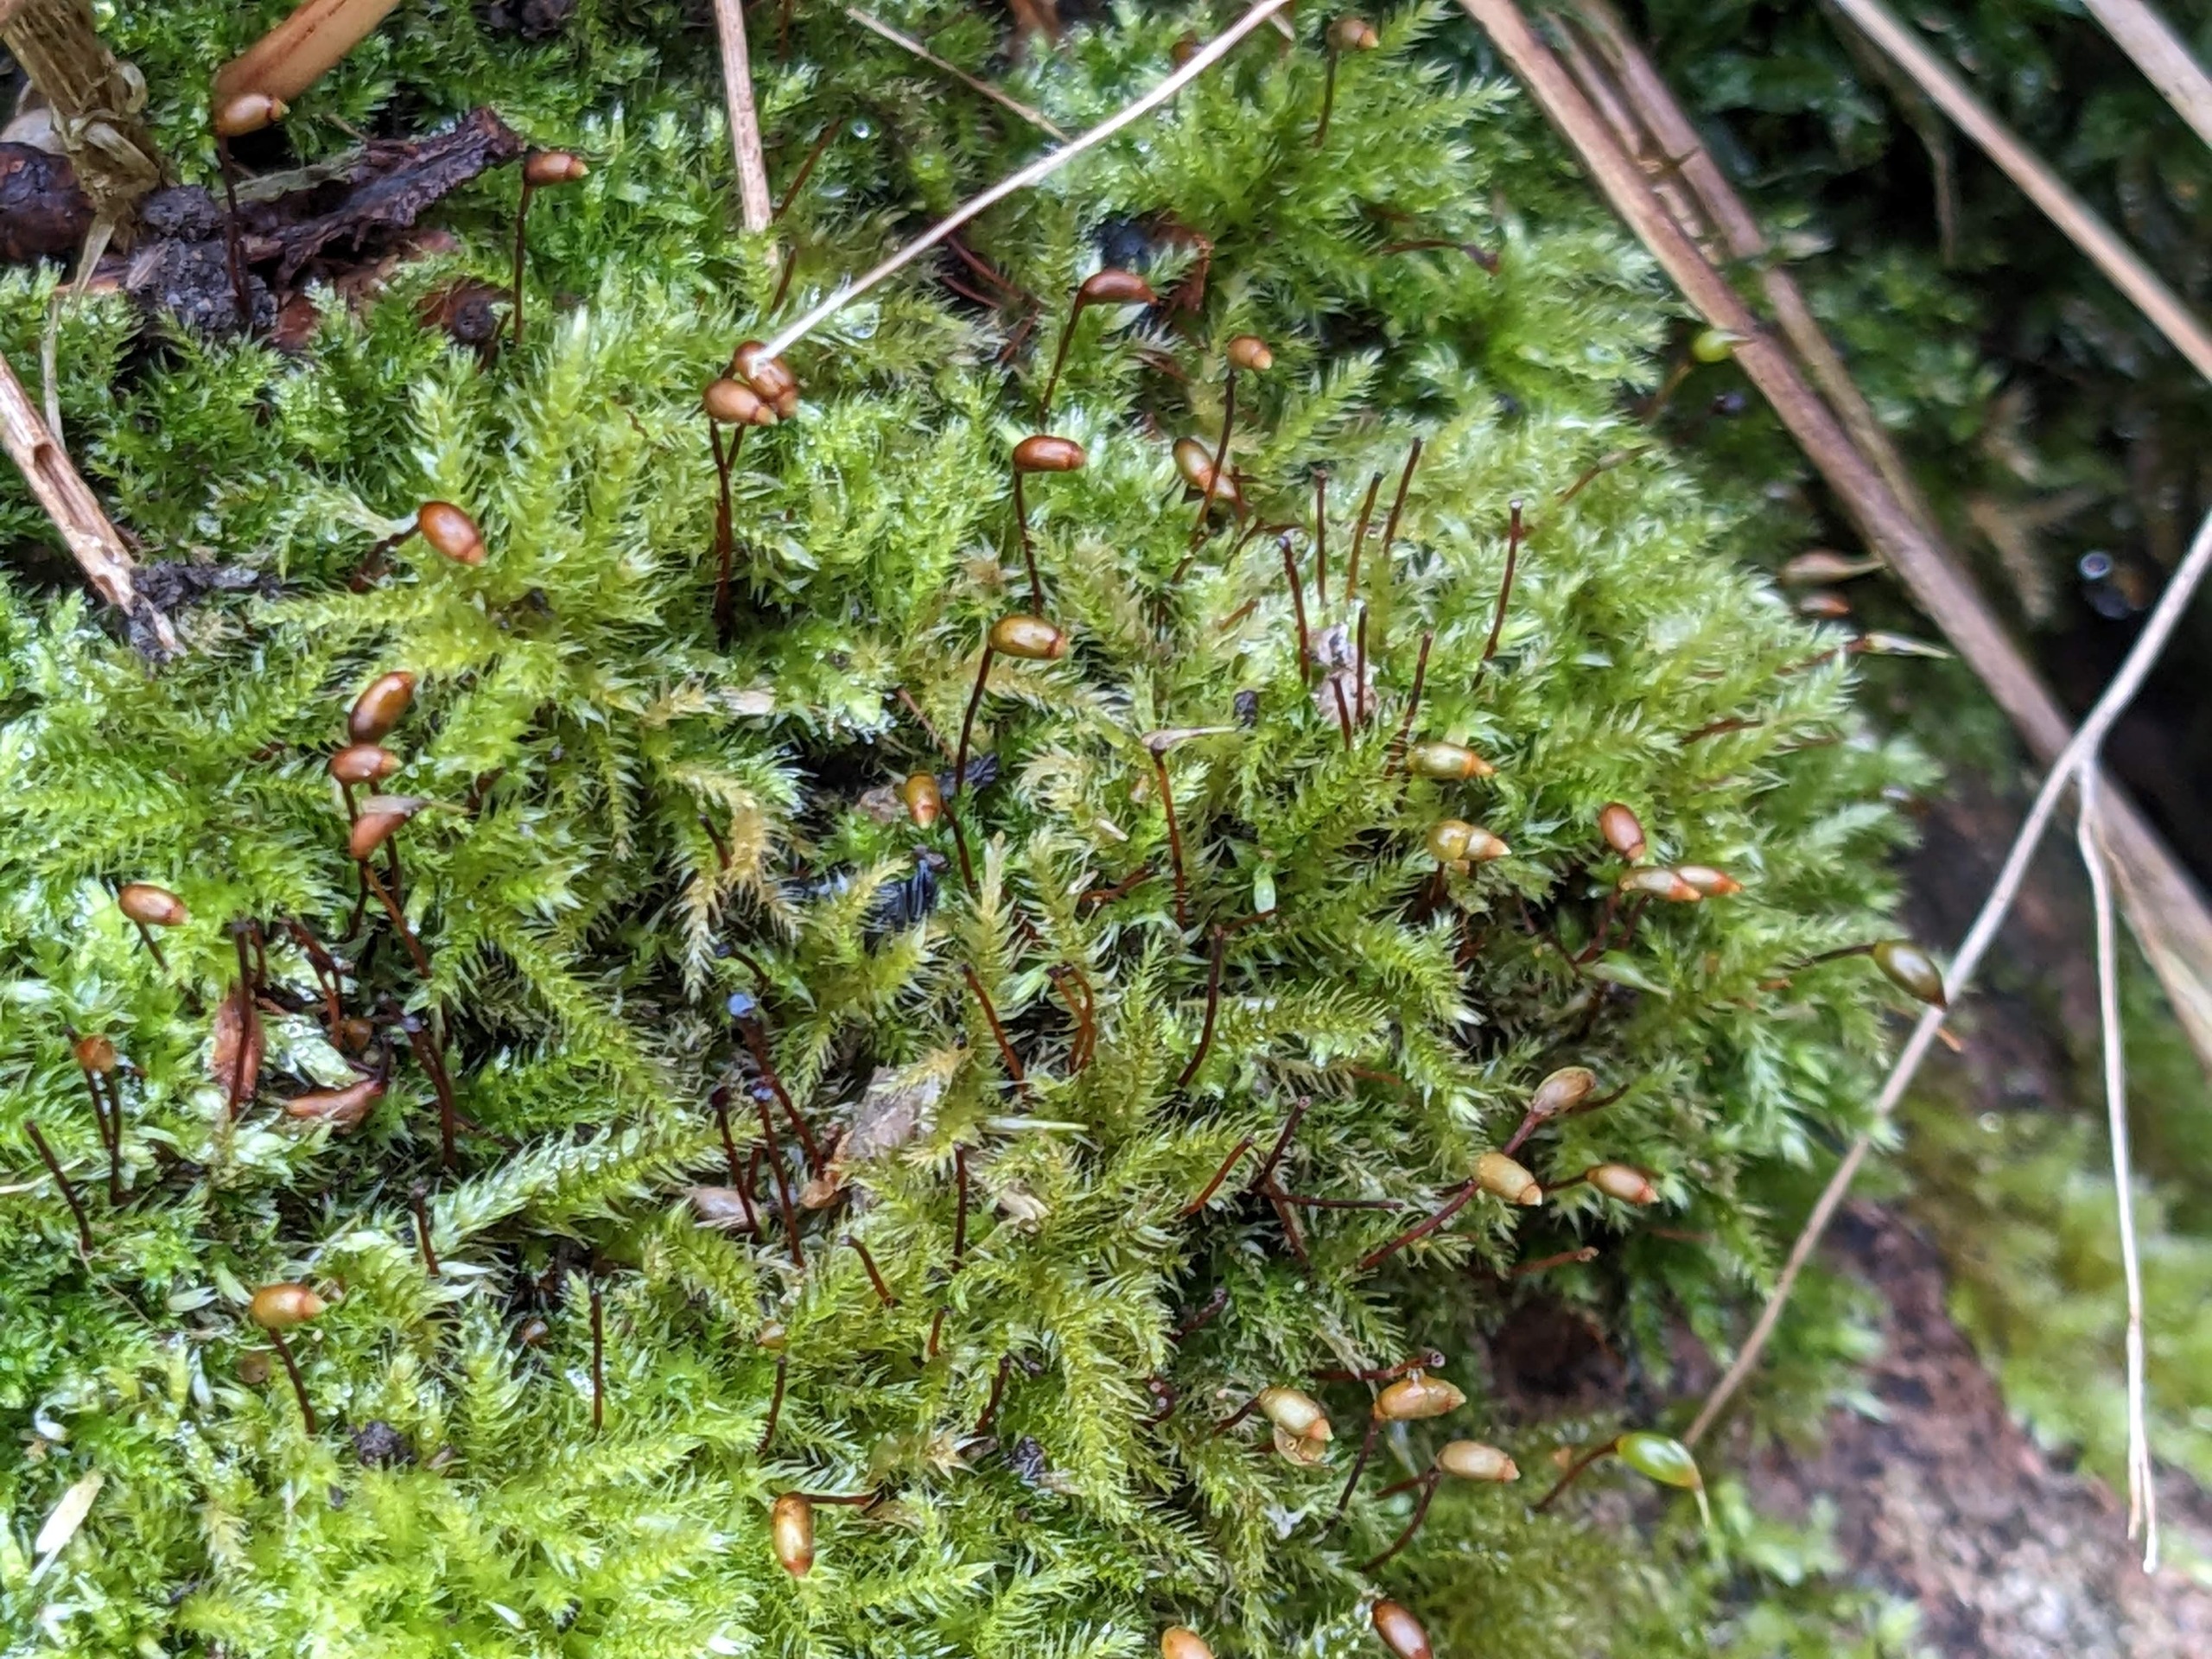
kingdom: Plantae
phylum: Bryophyta
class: Bryopsida
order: Hypnales
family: Brachytheciaceae
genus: Brachytheciastrum
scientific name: Brachytheciastrum velutinum
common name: Fløjls-kortkapsel
